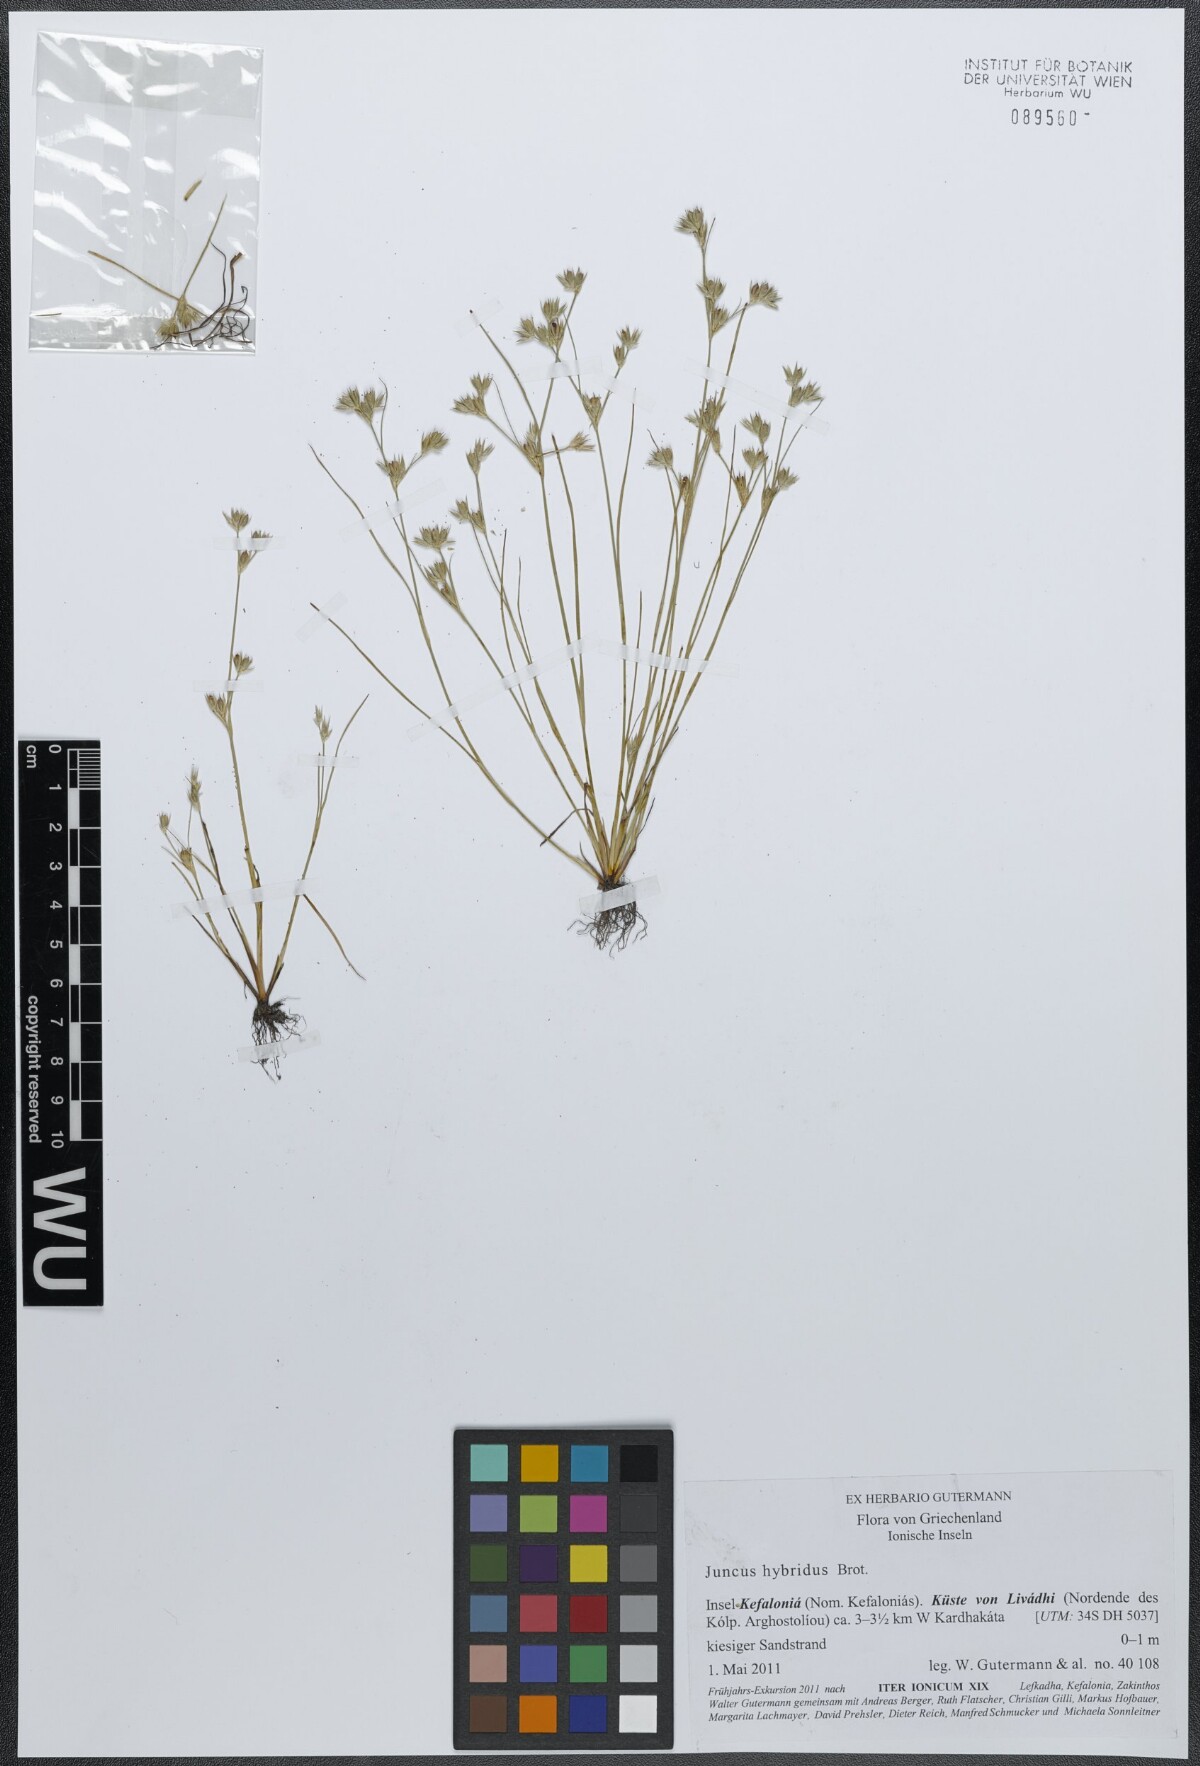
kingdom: Plantae
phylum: Tracheophyta
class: Liliopsida
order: Poales
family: Juncaceae
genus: Juncus
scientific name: Juncus hybridus
